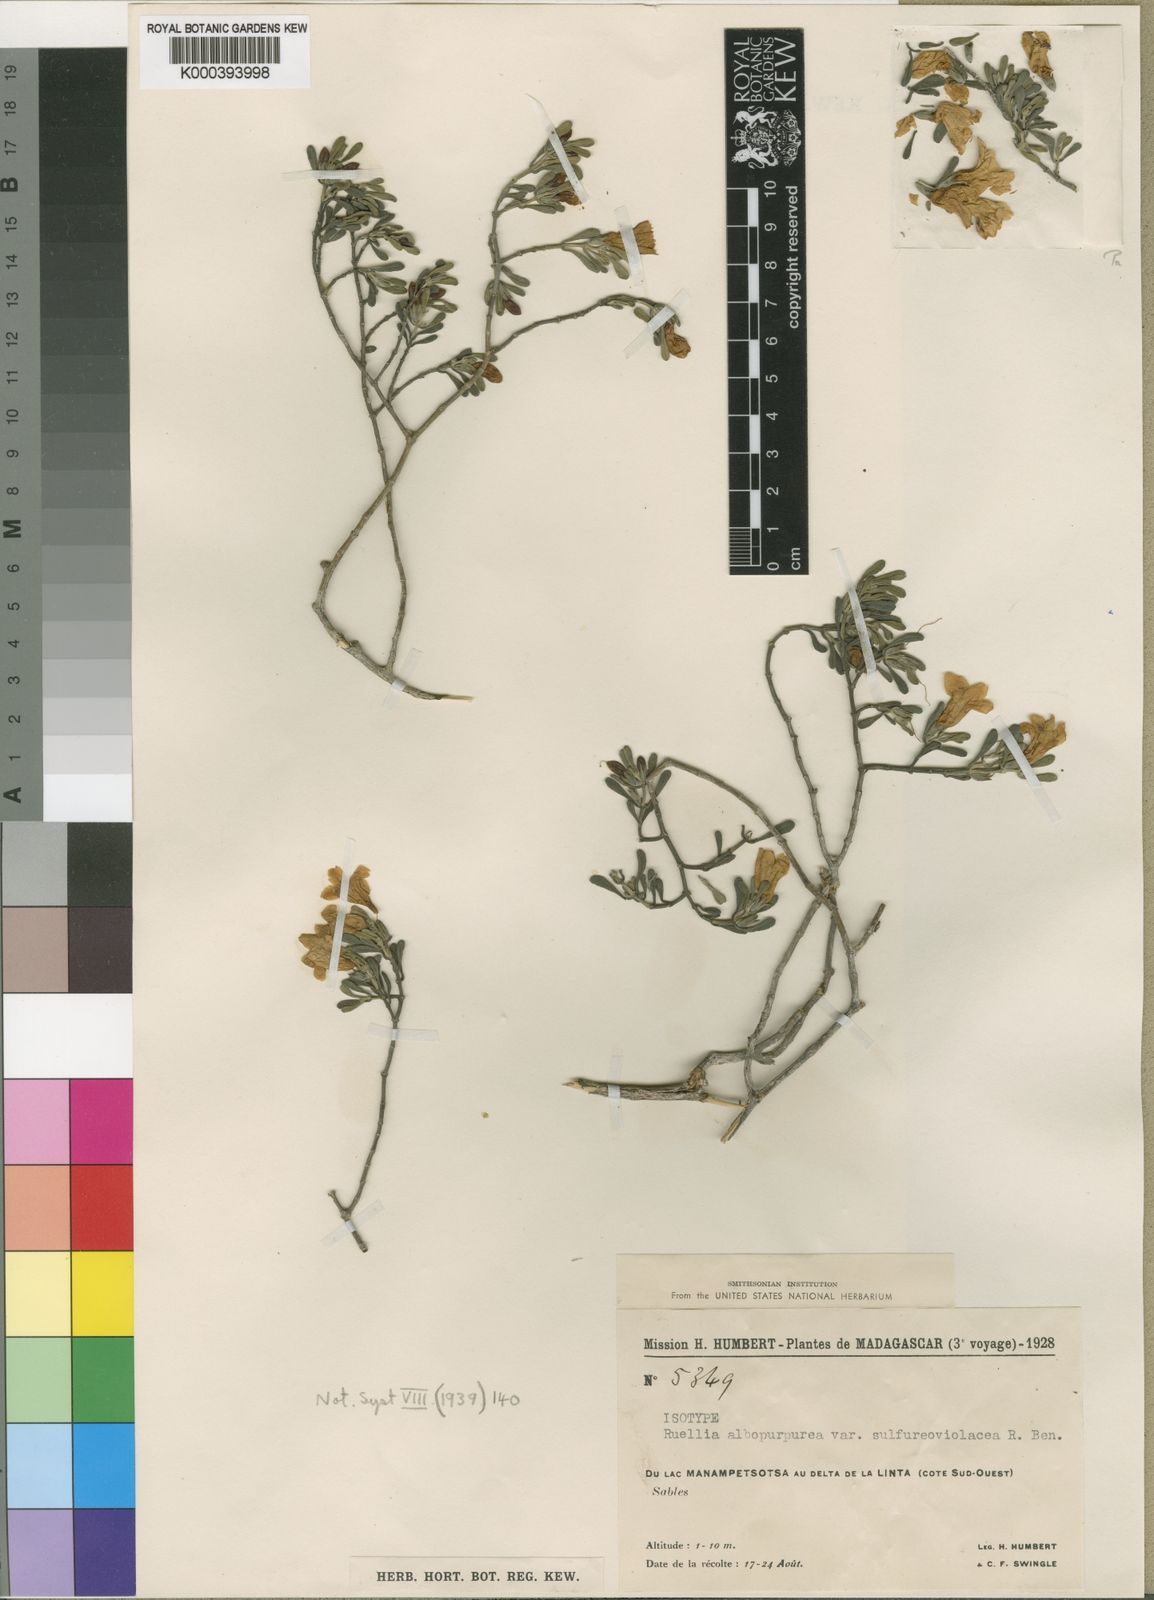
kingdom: Plantae
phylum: Tracheophyta
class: Magnoliopsida
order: Lamiales
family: Acanthaceae
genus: Ruellia
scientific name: Ruellia albopurpurea
